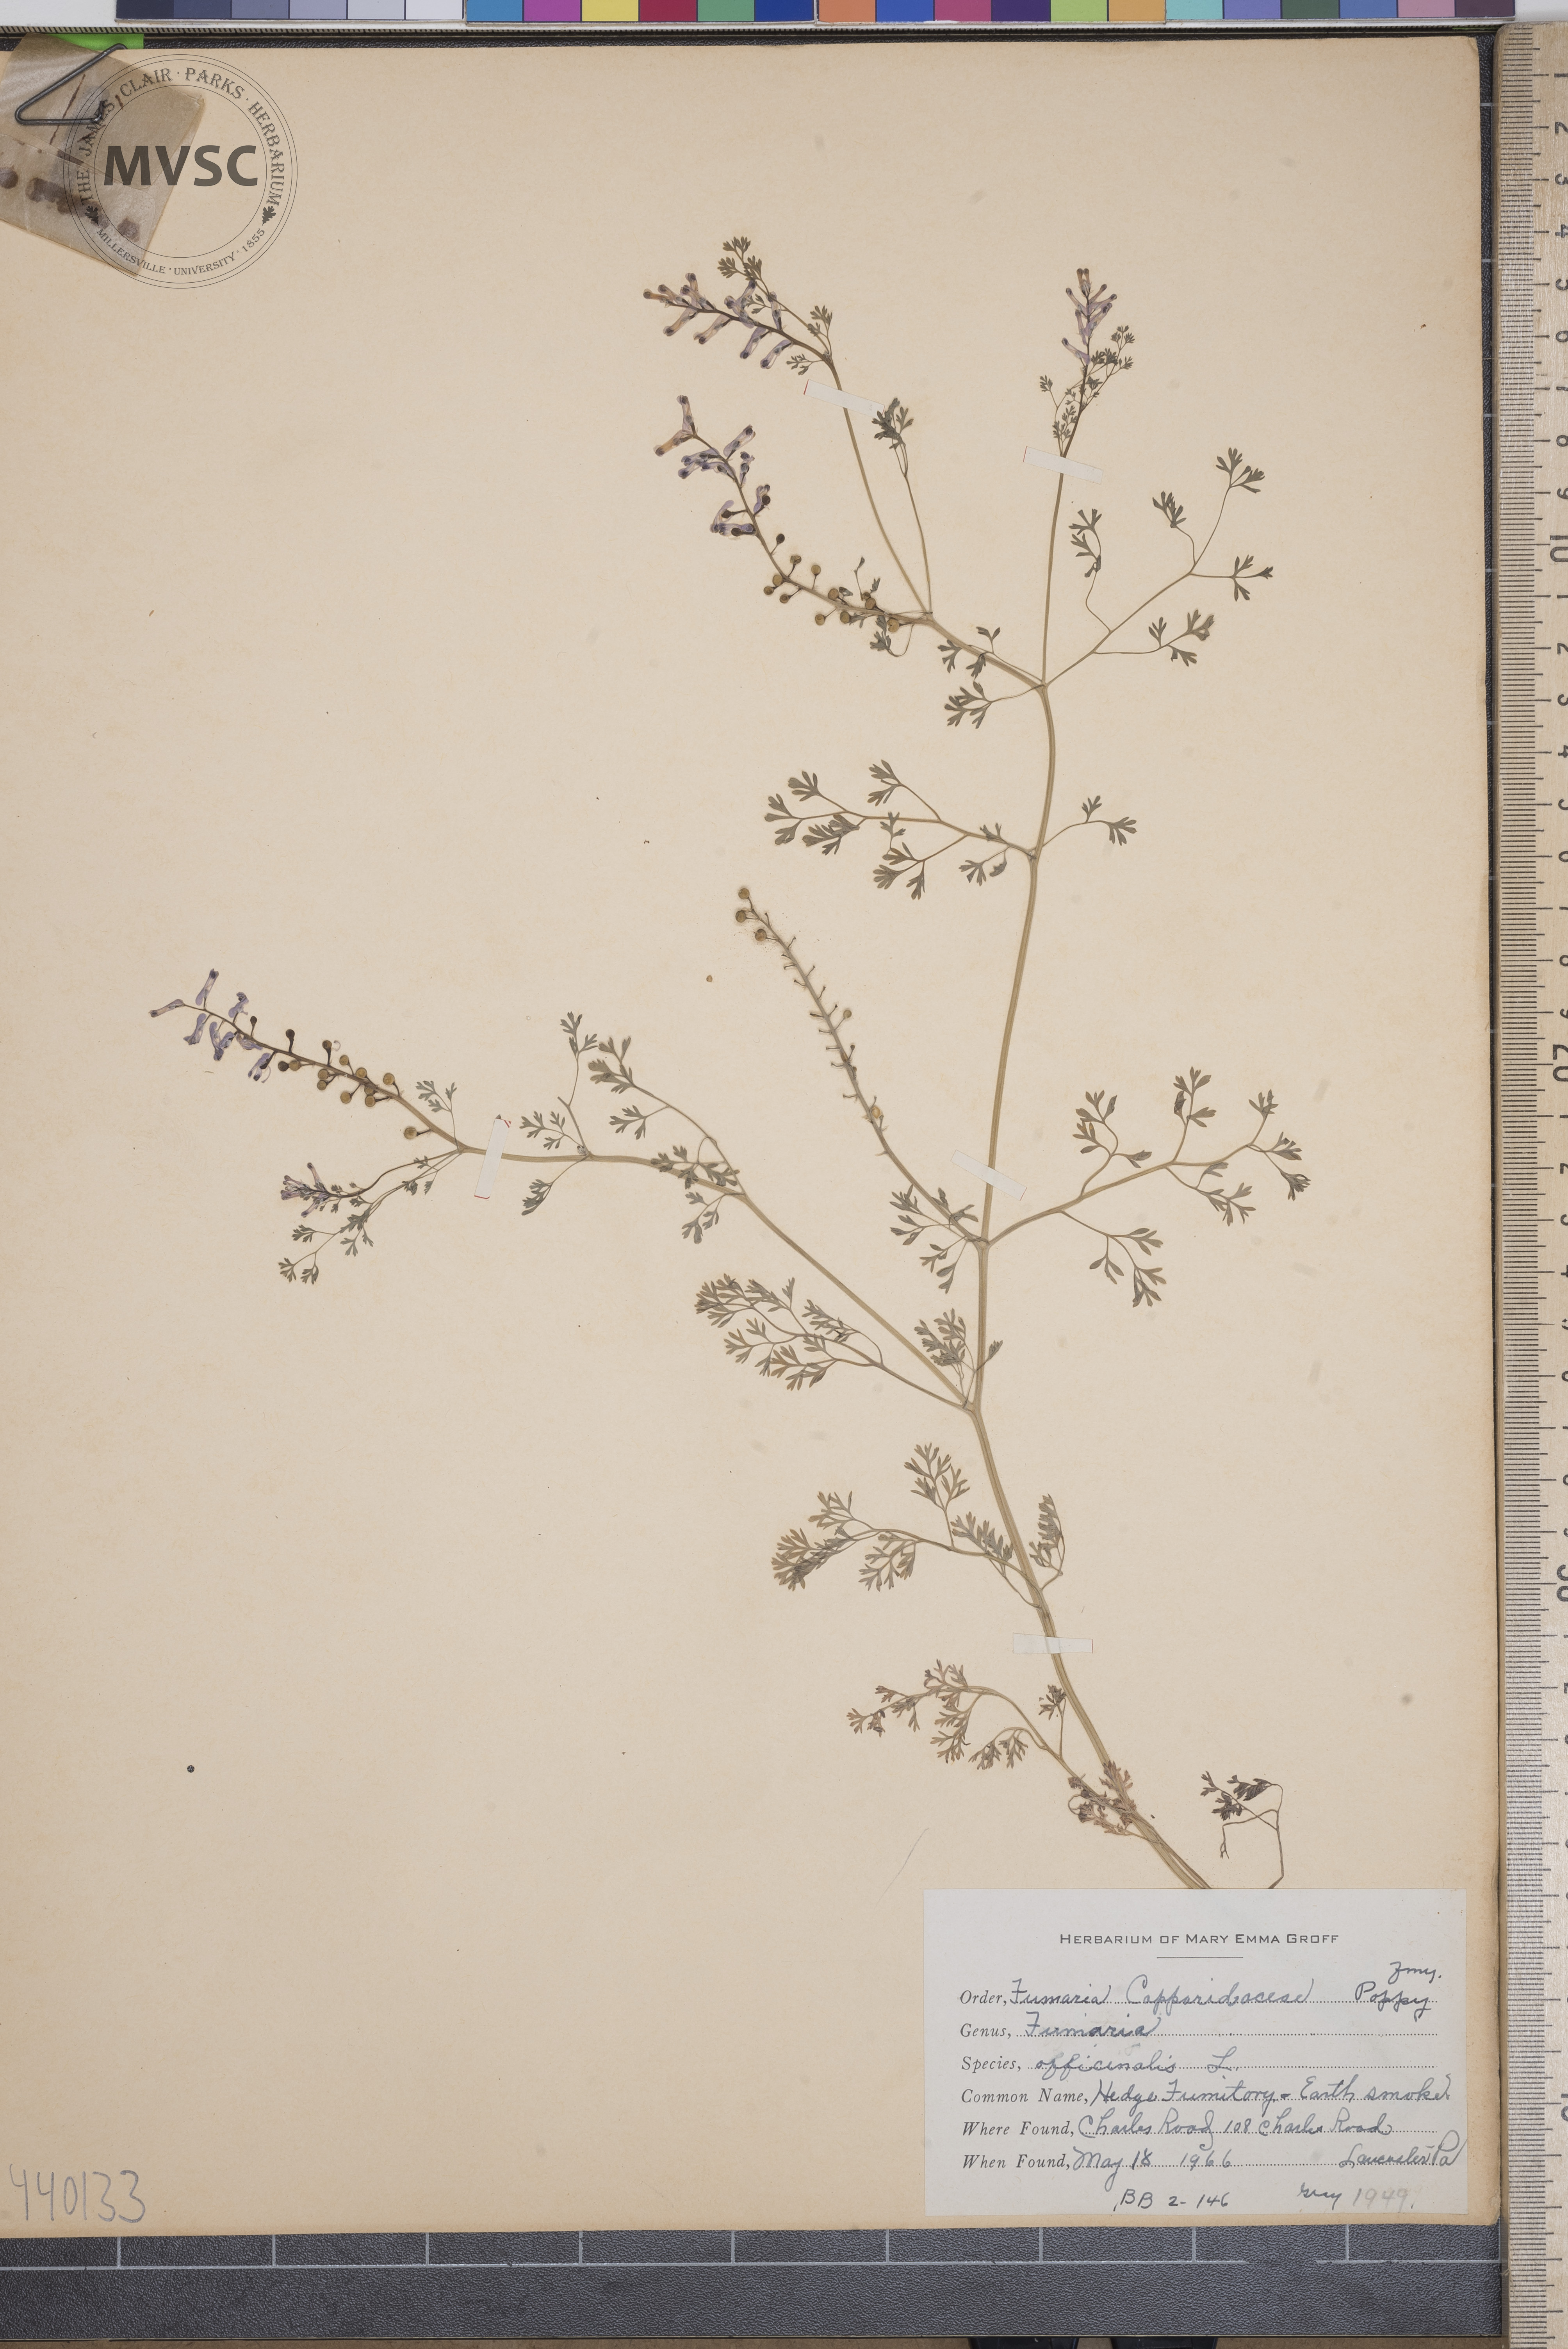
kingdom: Plantae
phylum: Tracheophyta
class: Magnoliopsida
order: Ranunculales
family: Papaveraceae
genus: Fumaria
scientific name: Fumaria officinalis
